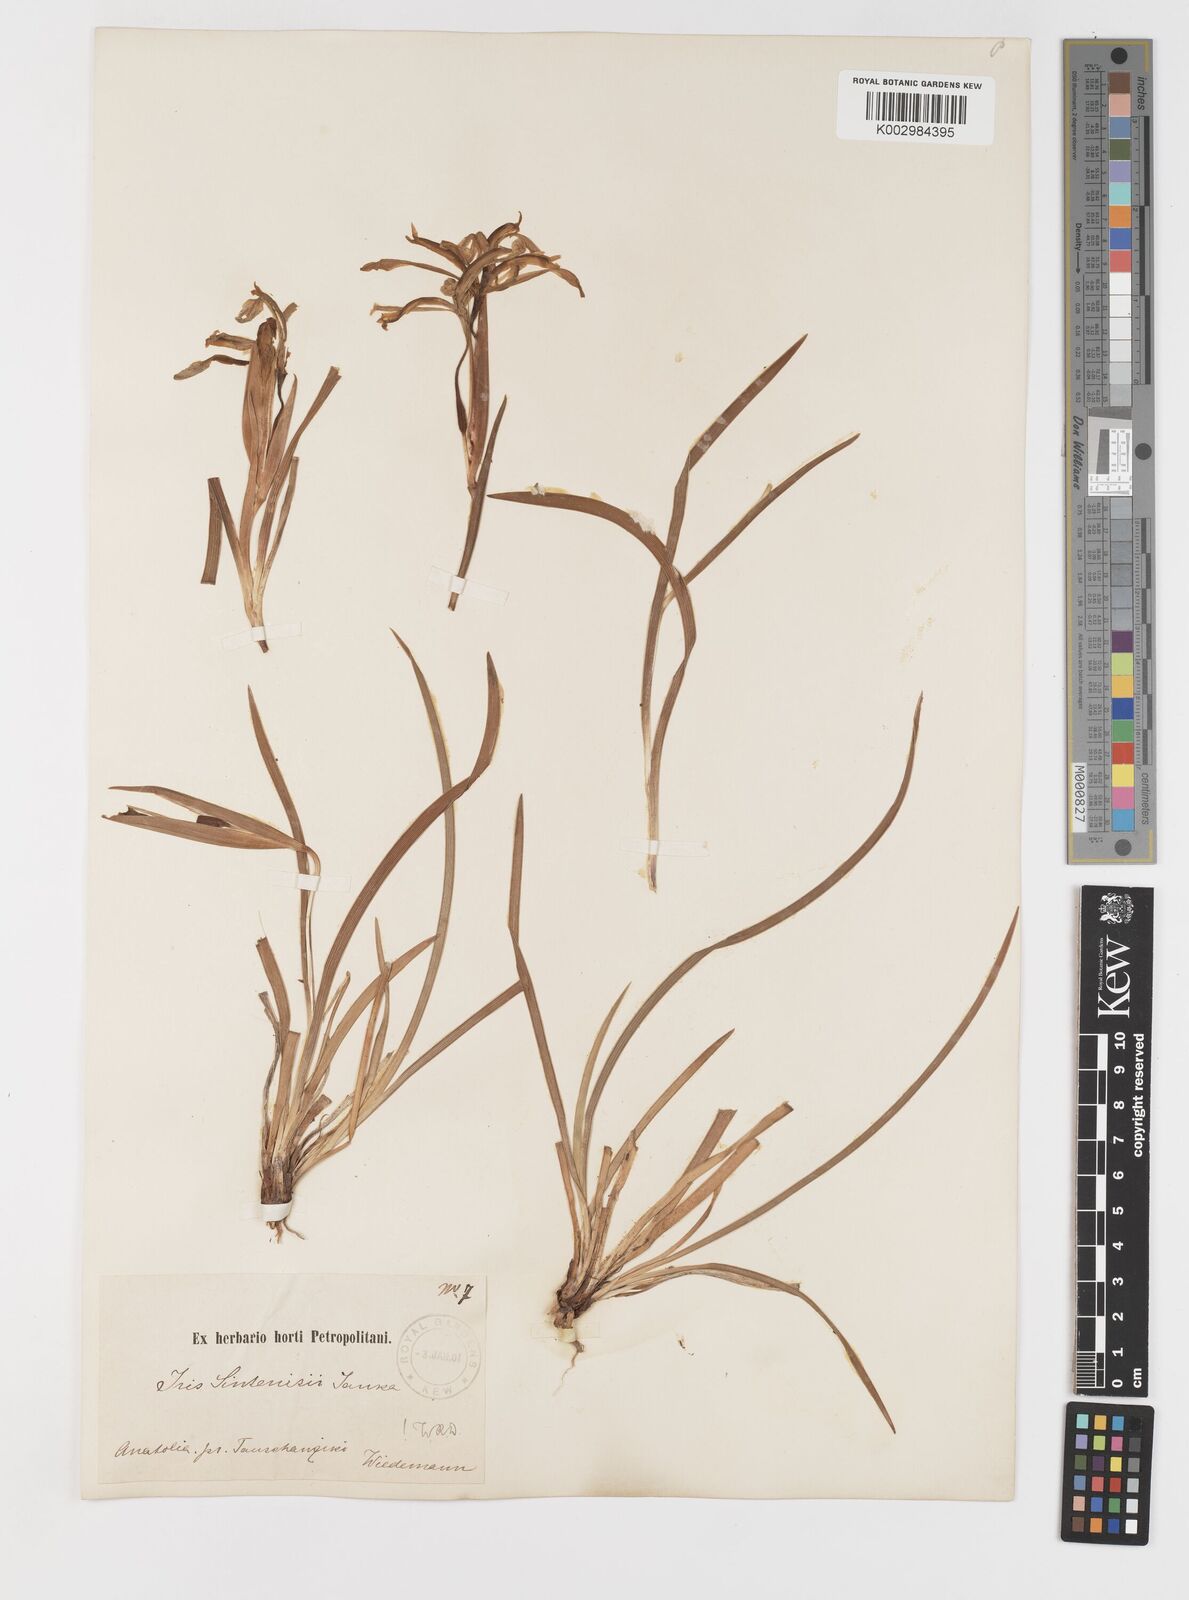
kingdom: Plantae
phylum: Tracheophyta
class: Liliopsida
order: Asparagales
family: Iridaceae
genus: Iris
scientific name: Iris sintenisii
